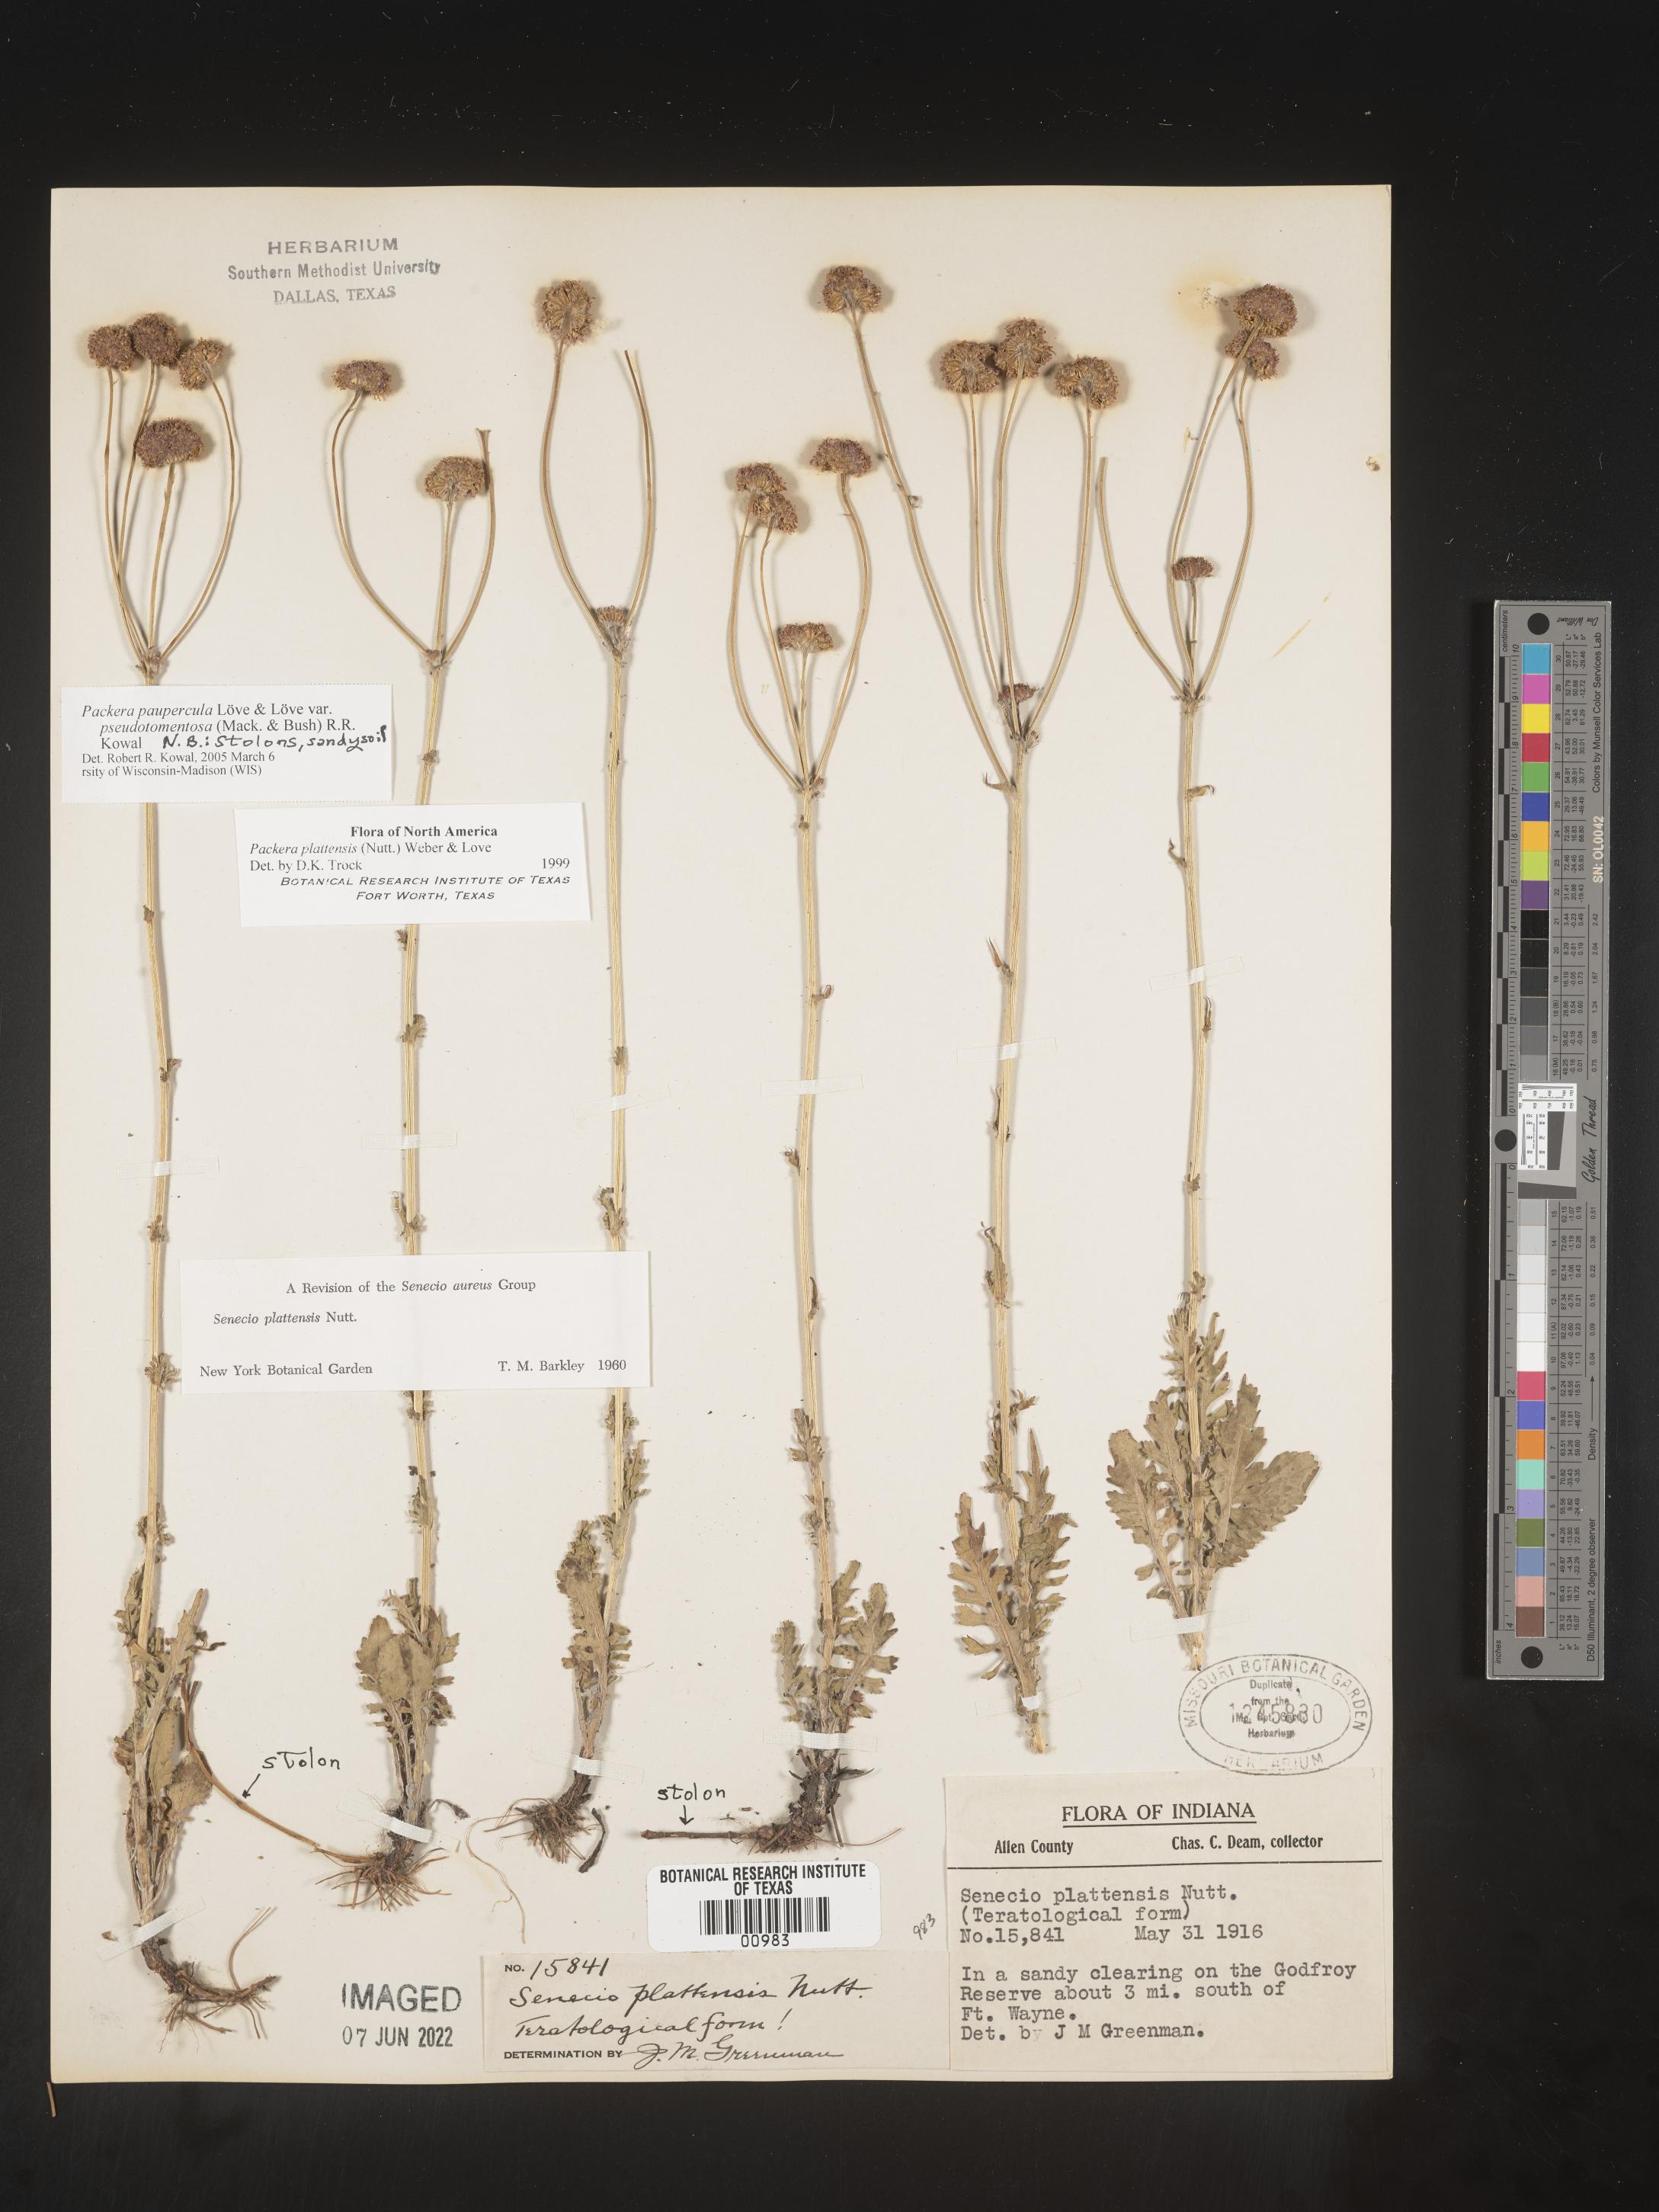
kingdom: Plantae
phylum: Tracheophyta
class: Magnoliopsida
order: Asterales
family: Asteraceae
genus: Packera
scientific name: Packera paupercula
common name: Balsam groundsel
